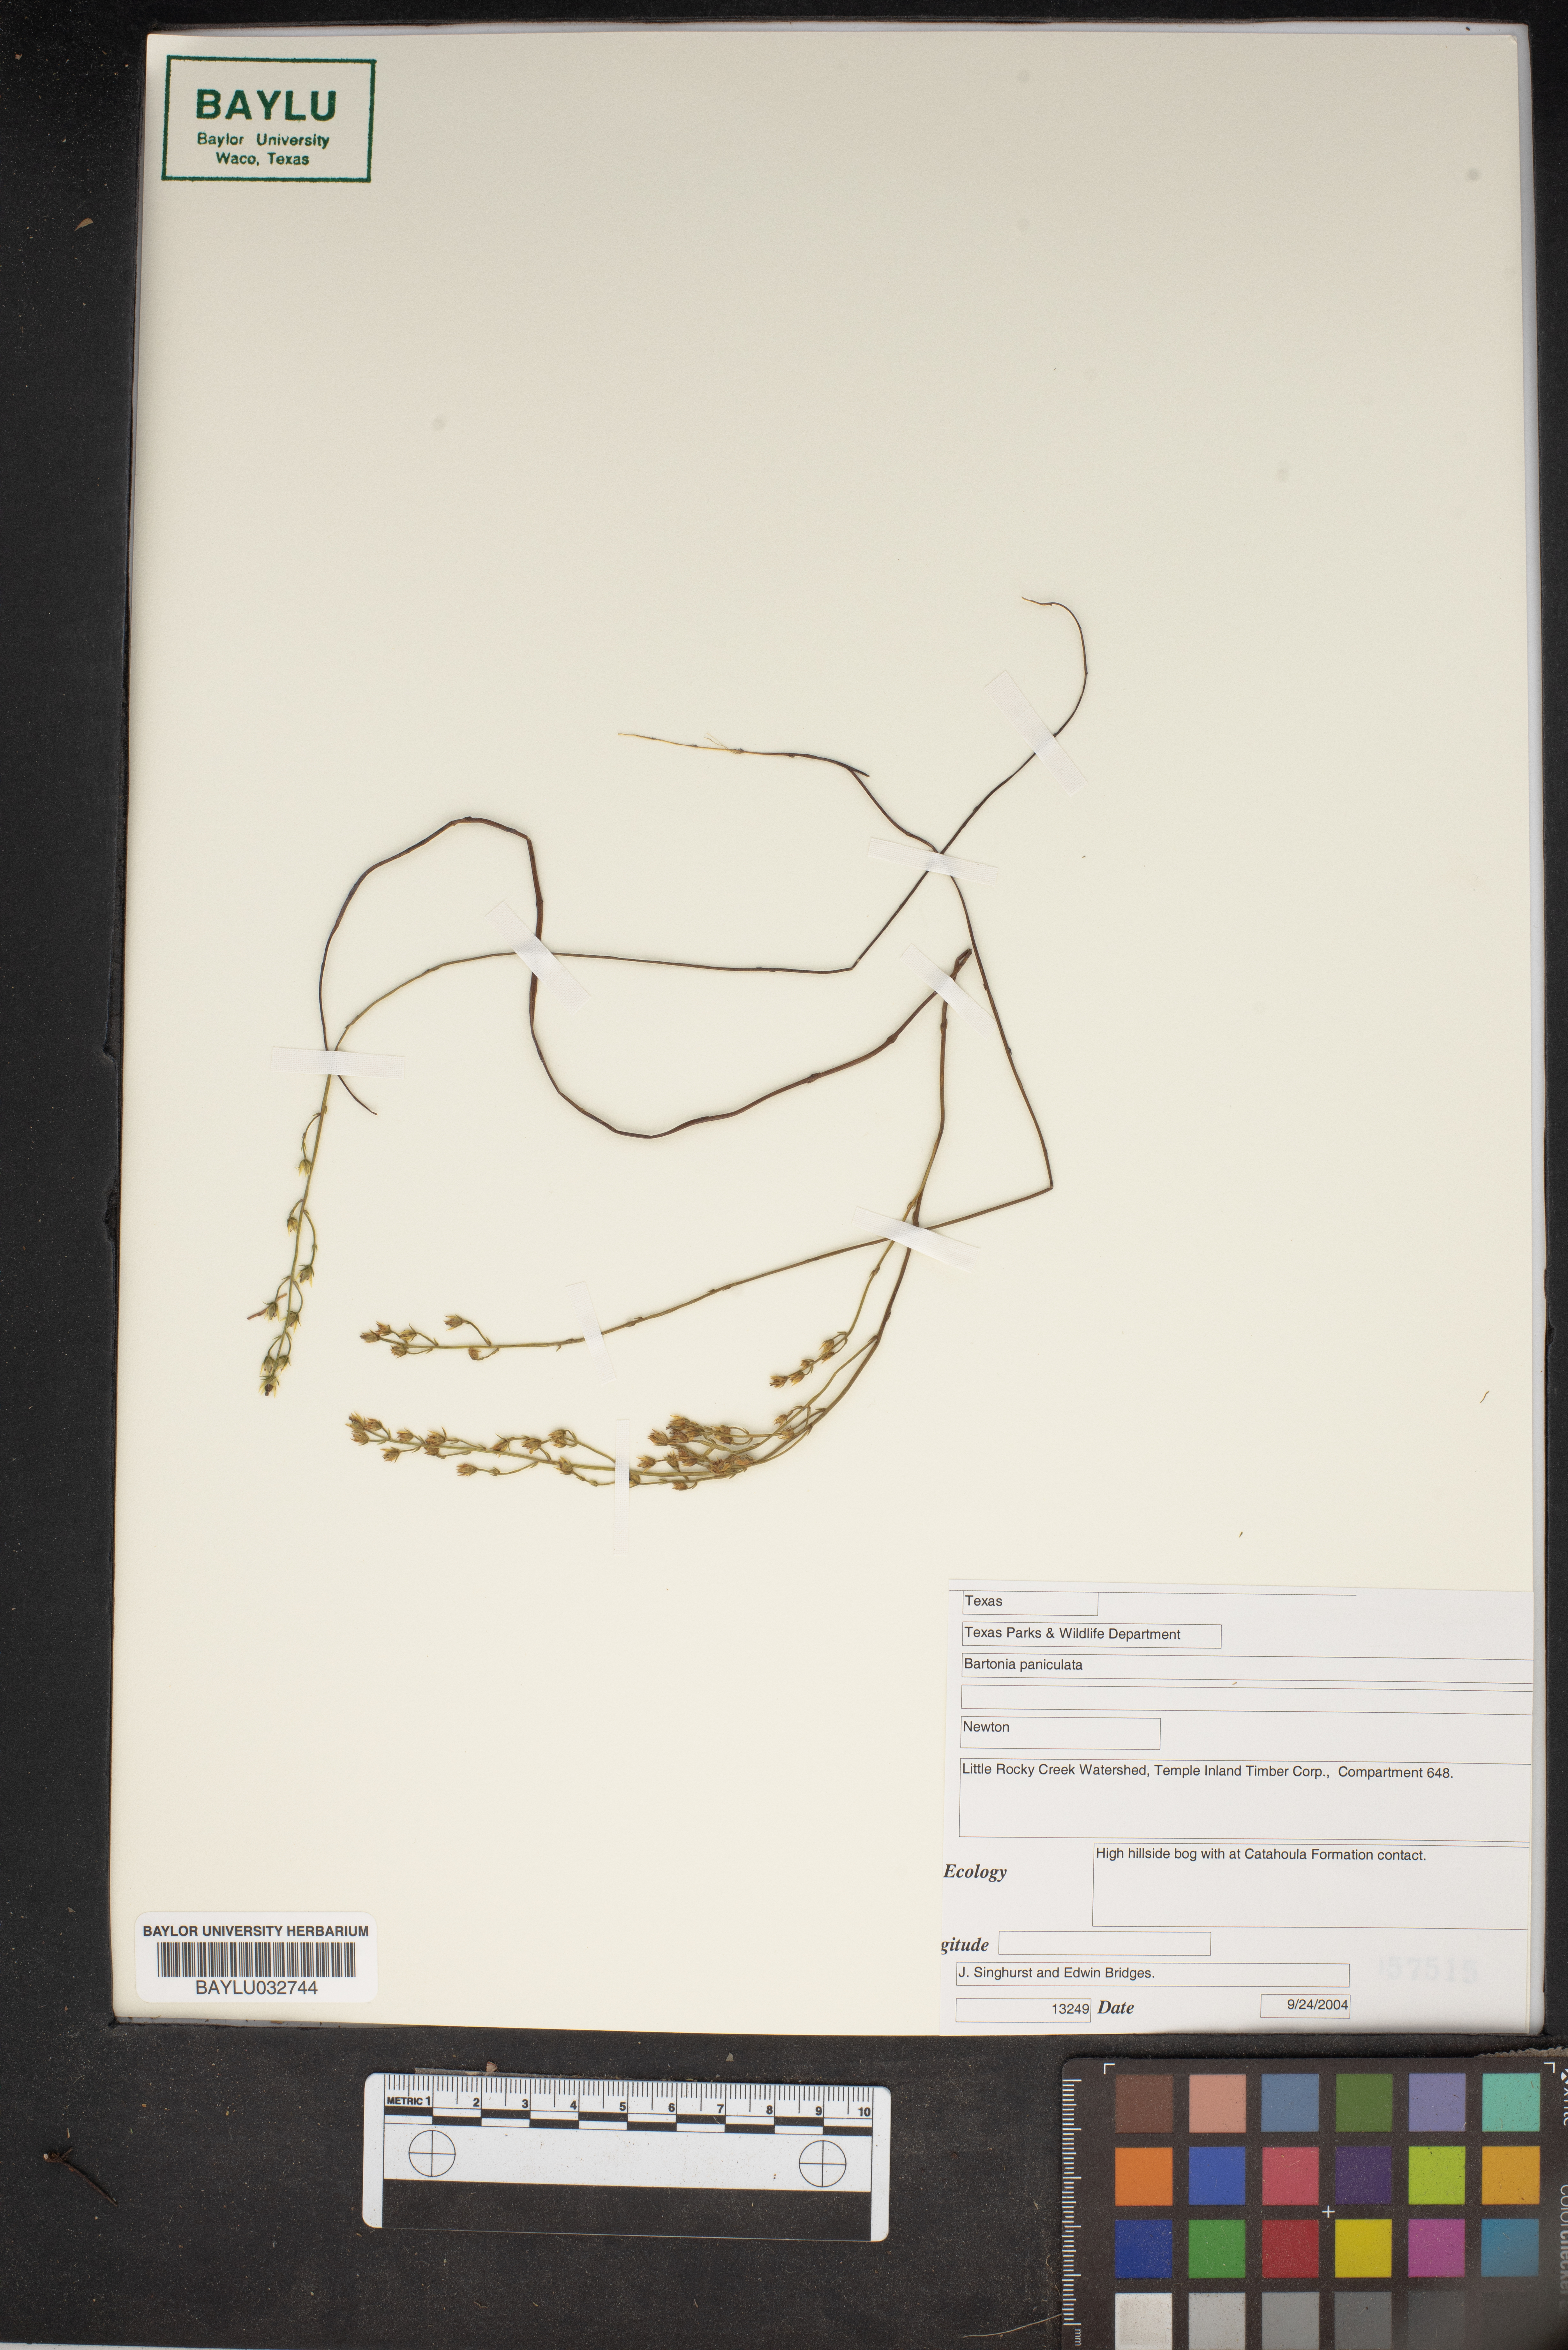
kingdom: Plantae
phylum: Tracheophyta
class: Magnoliopsida
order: Gentianales
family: Gentianaceae
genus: Bartonia
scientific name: Bartonia paniculata
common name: Branched bartonia
